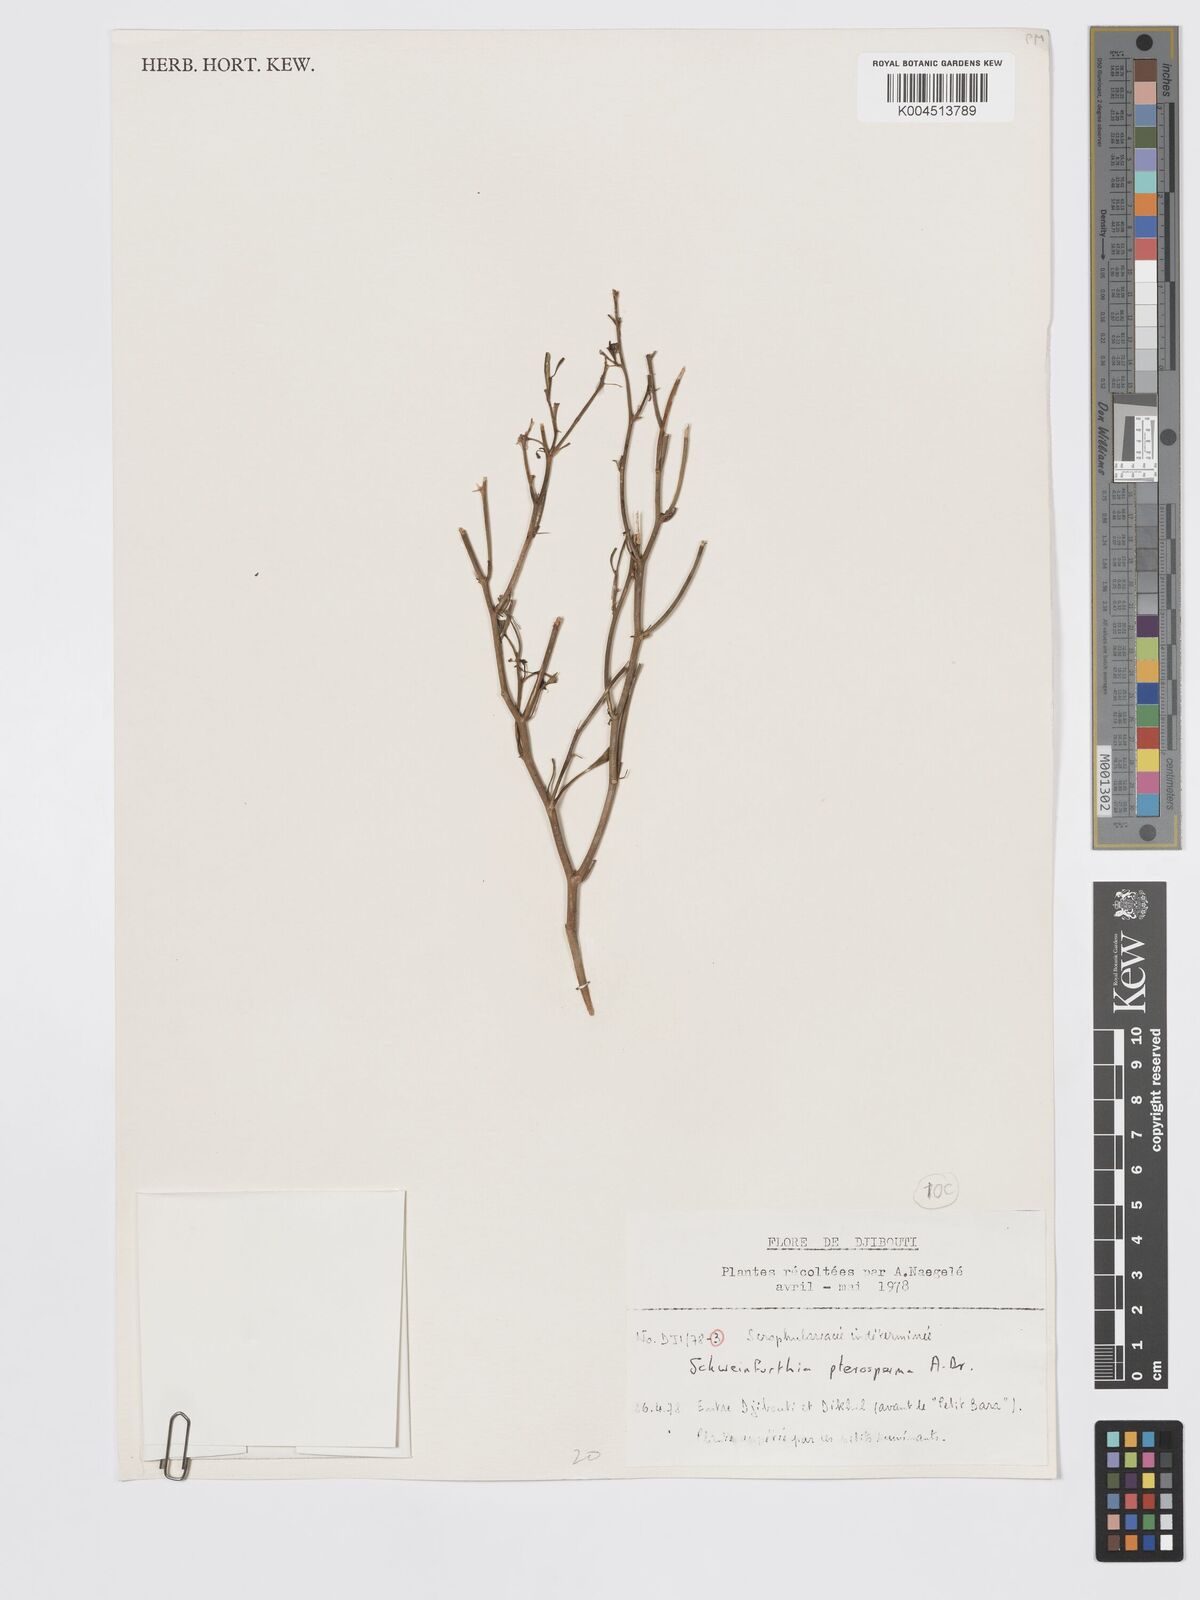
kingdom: Plantae
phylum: Tracheophyta
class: Magnoliopsida
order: Lamiales
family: Plantaginaceae
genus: Schweinfurthia
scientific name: Schweinfurthia pterosperma
